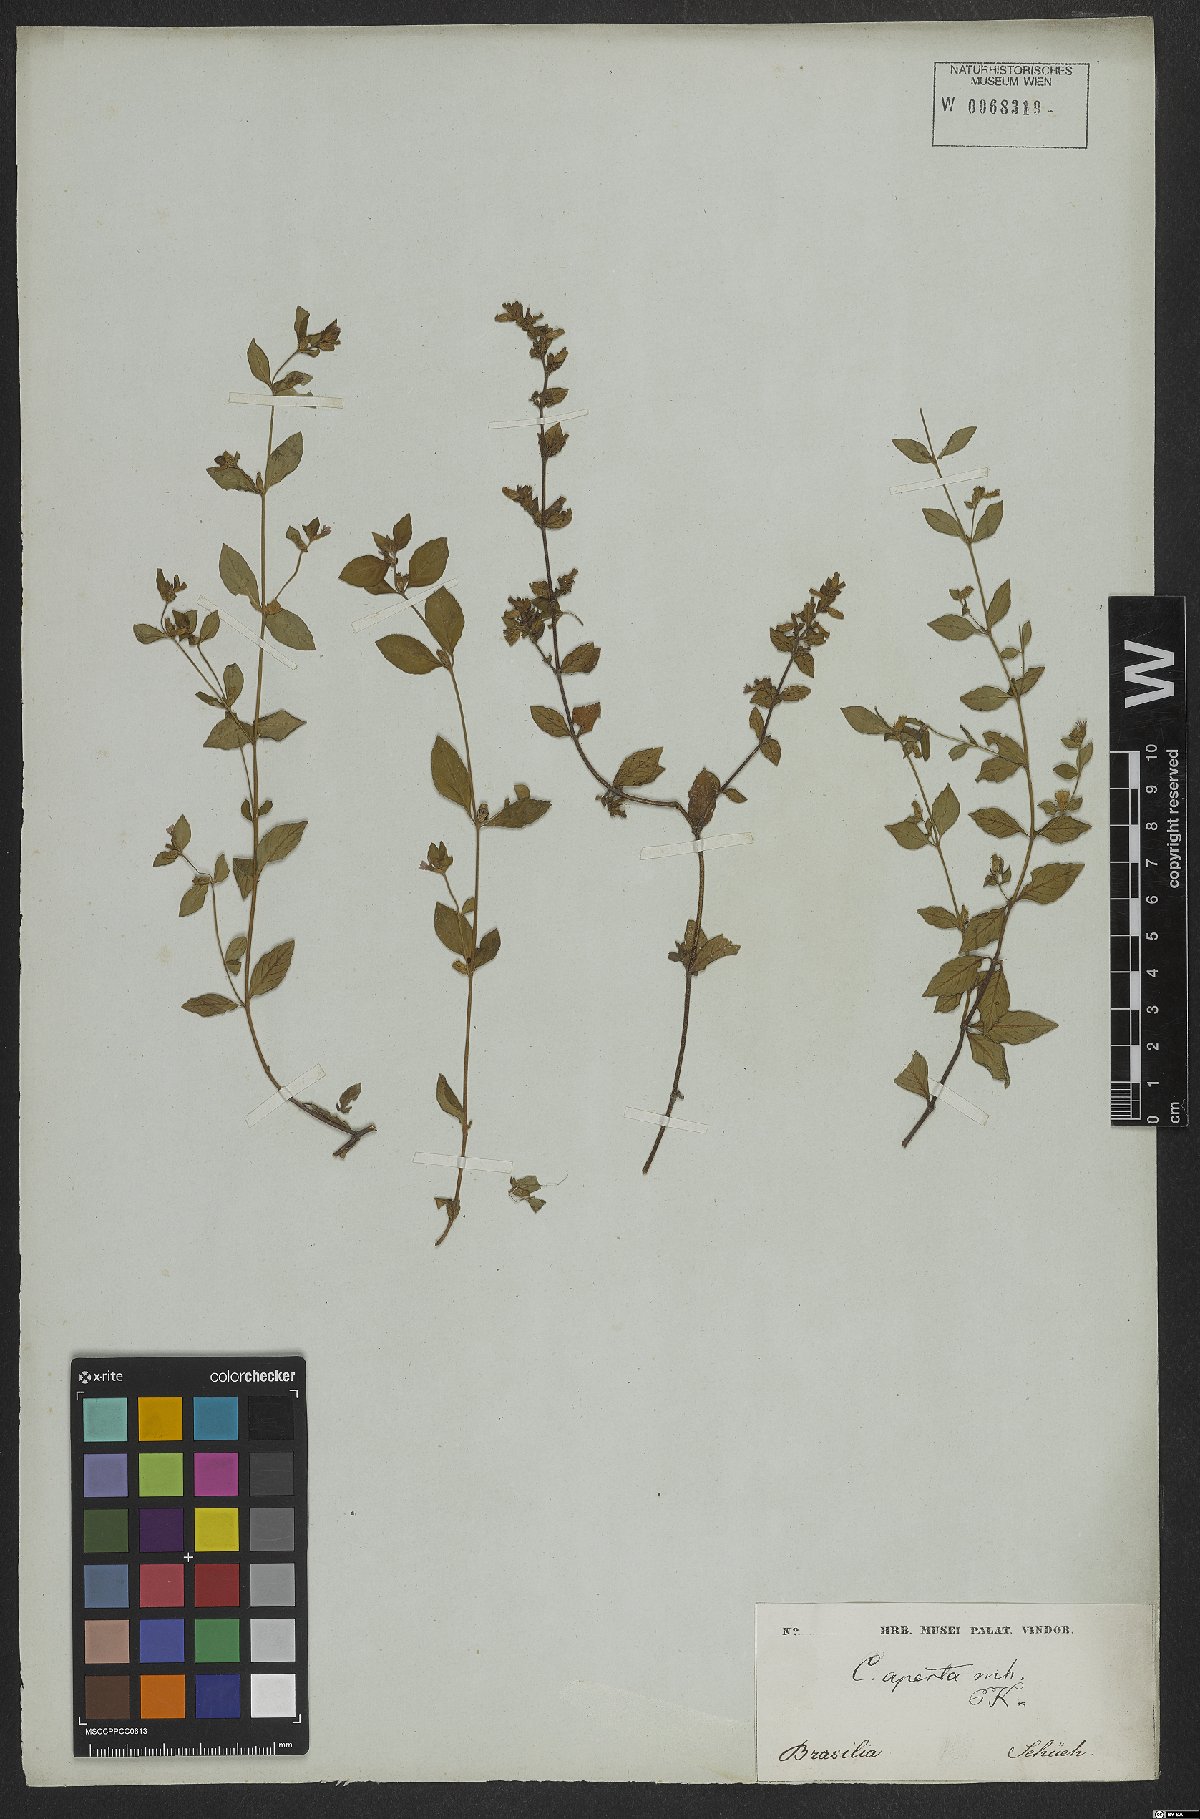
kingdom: Plantae
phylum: Tracheophyta
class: Magnoliopsida
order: Myrtales
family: Lythraceae
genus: Cuphea
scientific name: Cuphea aperta
